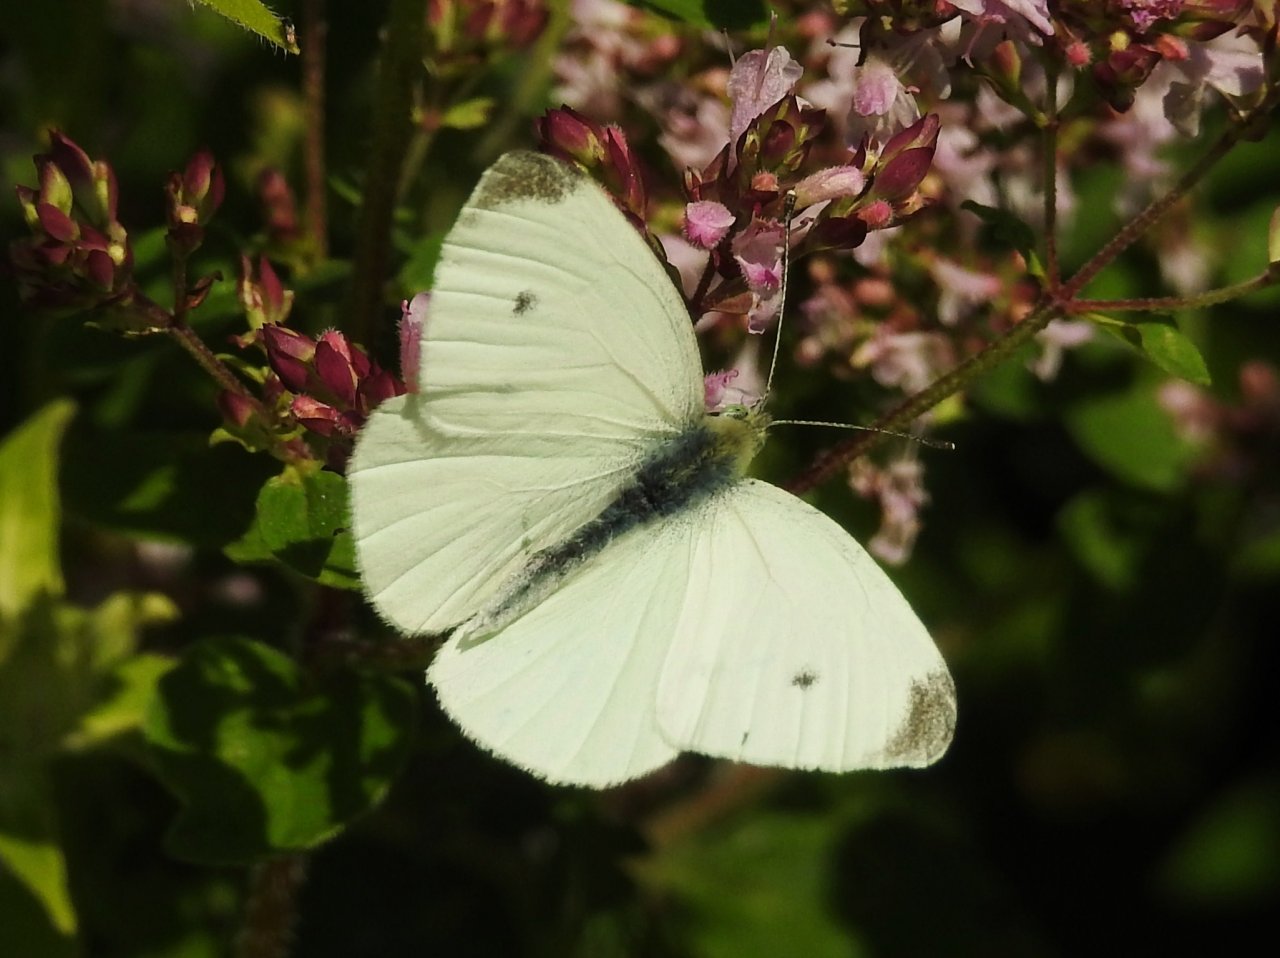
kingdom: Animalia
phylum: Arthropoda
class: Insecta
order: Lepidoptera
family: Pieridae
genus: Pieris
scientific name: Pieris rapae
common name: Cabbage White
